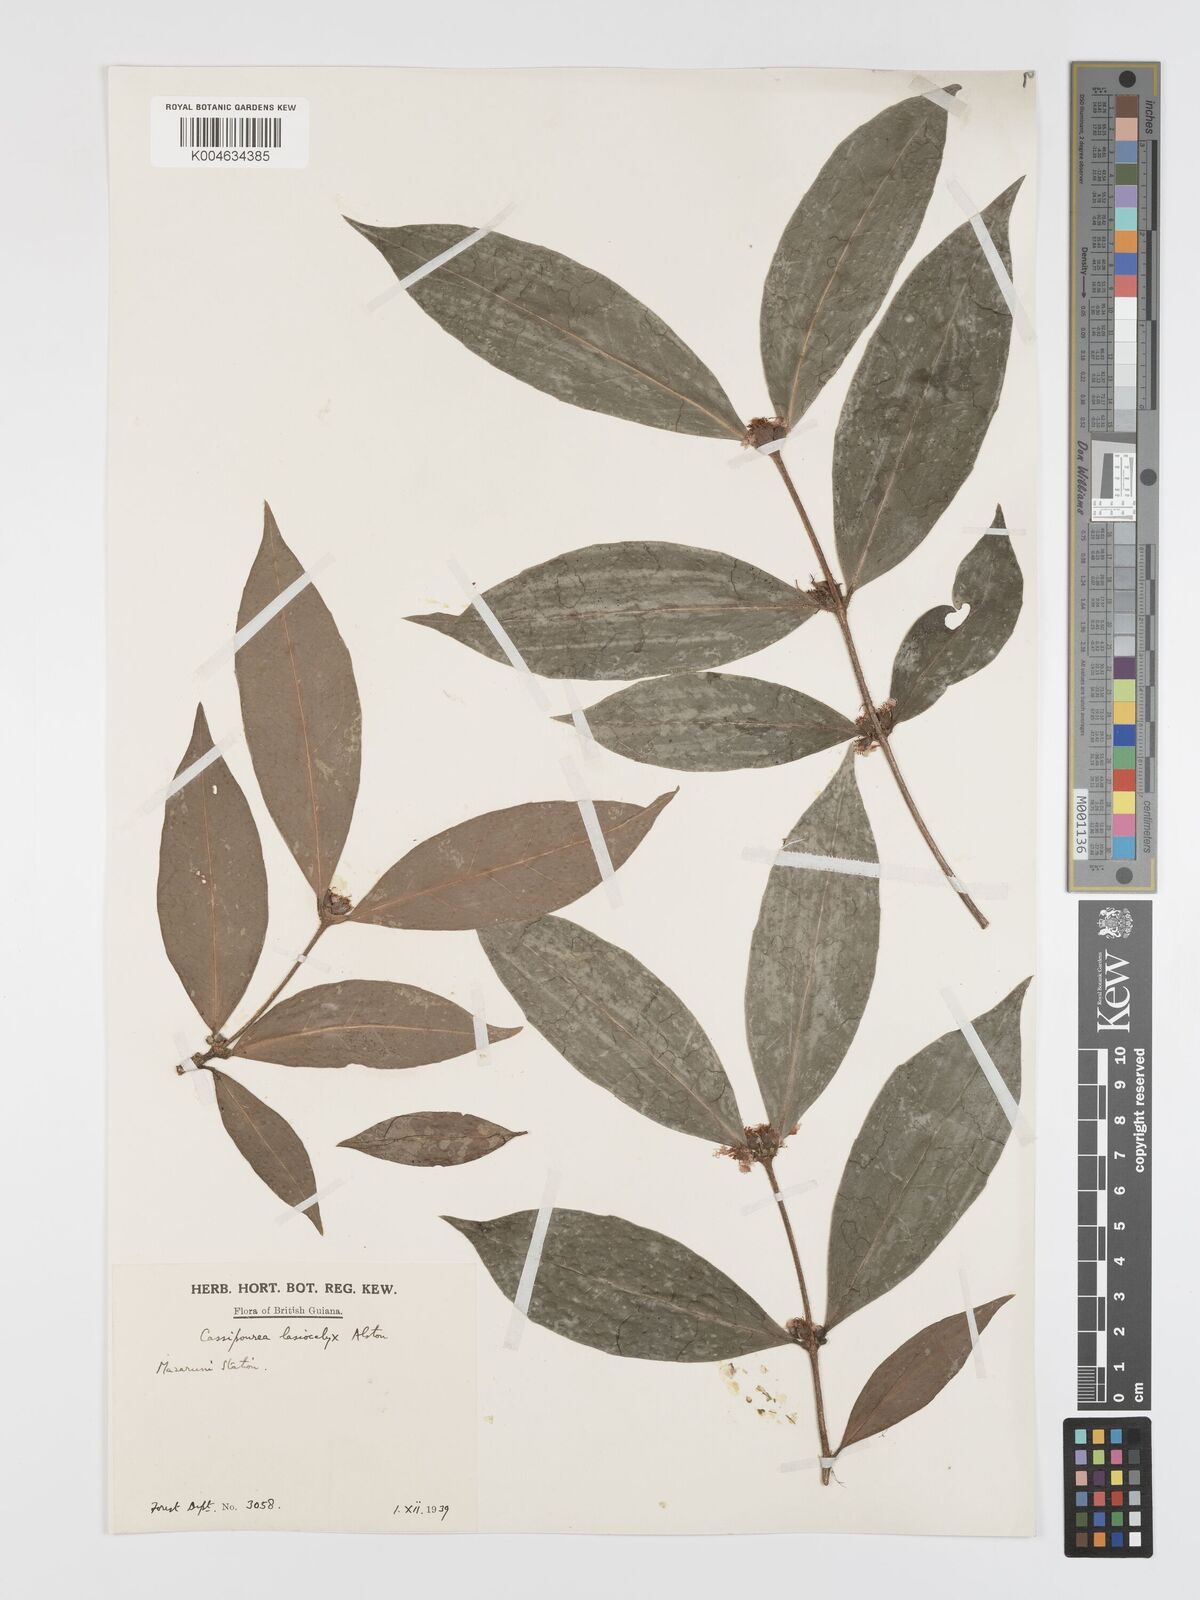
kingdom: Plantae
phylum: Tracheophyta
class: Magnoliopsida
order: Malpighiales
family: Rhizophoraceae
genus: Cassipourea
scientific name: Cassipourea lasiocalyx
